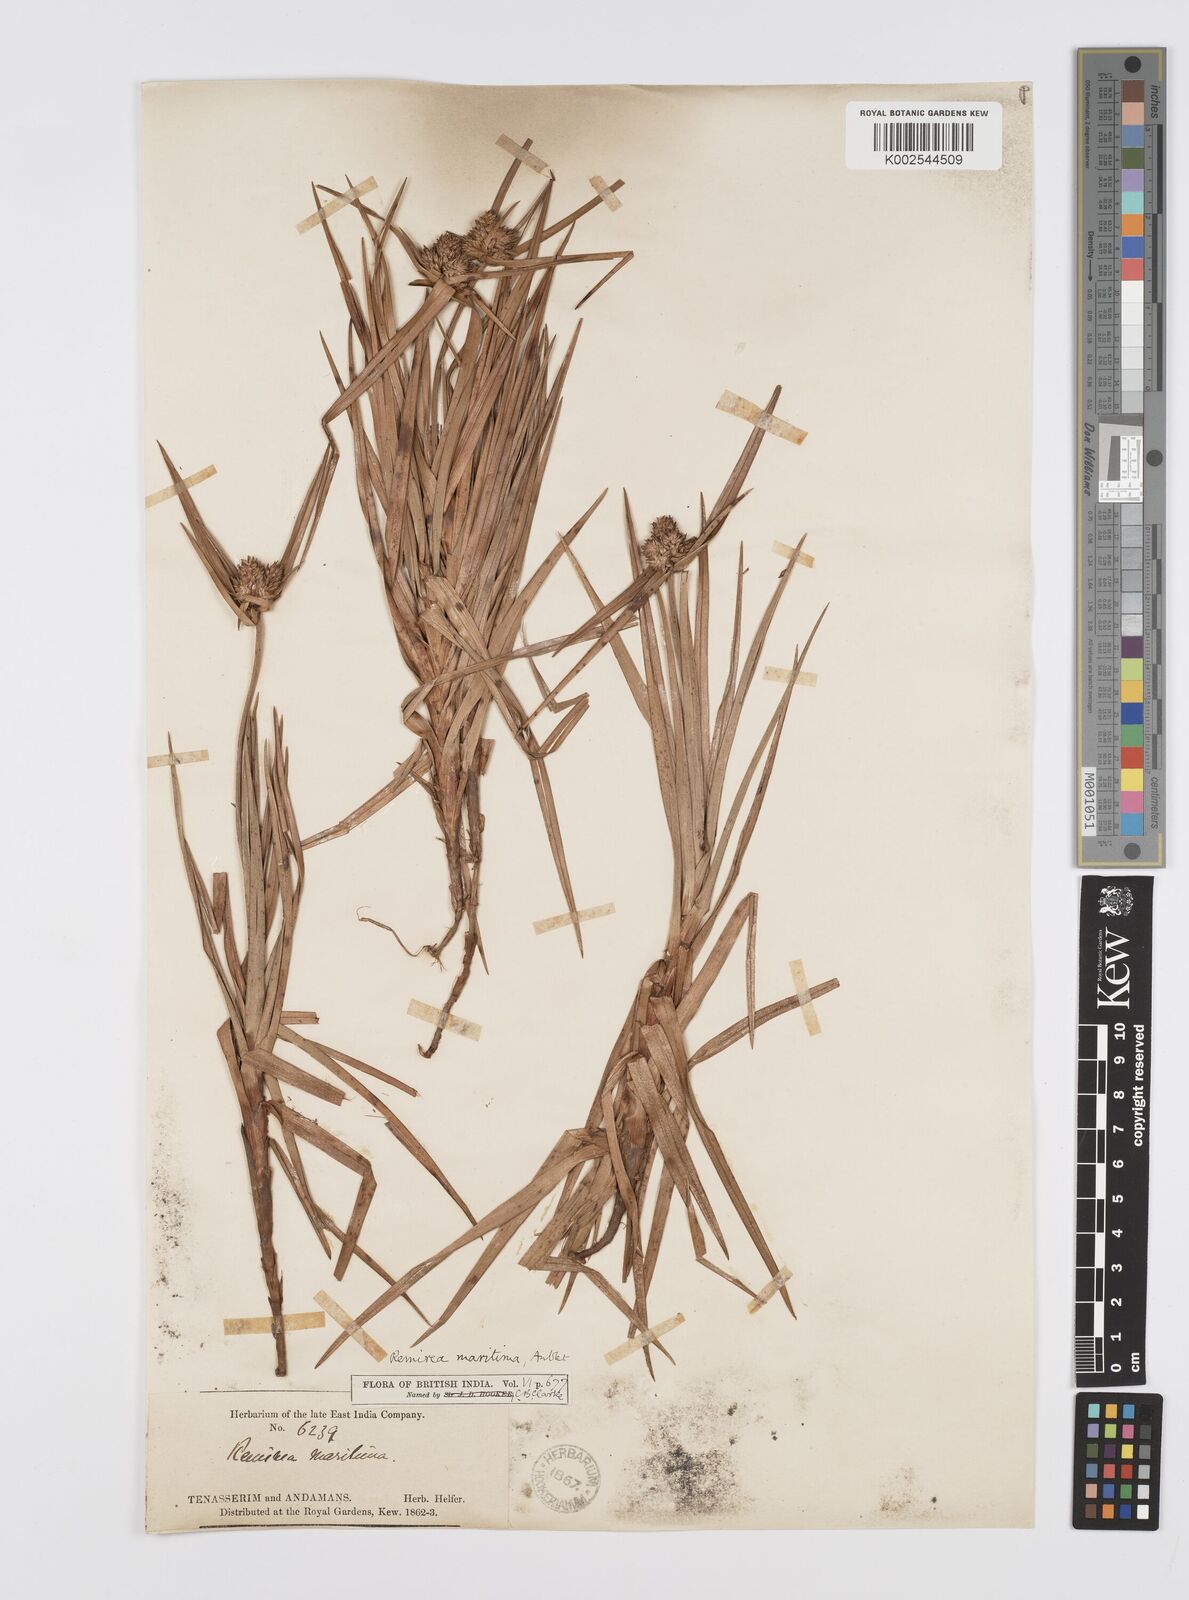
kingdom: Plantae
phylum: Tracheophyta
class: Liliopsida
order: Poales
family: Cyperaceae
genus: Cyperus
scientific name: Cyperus
